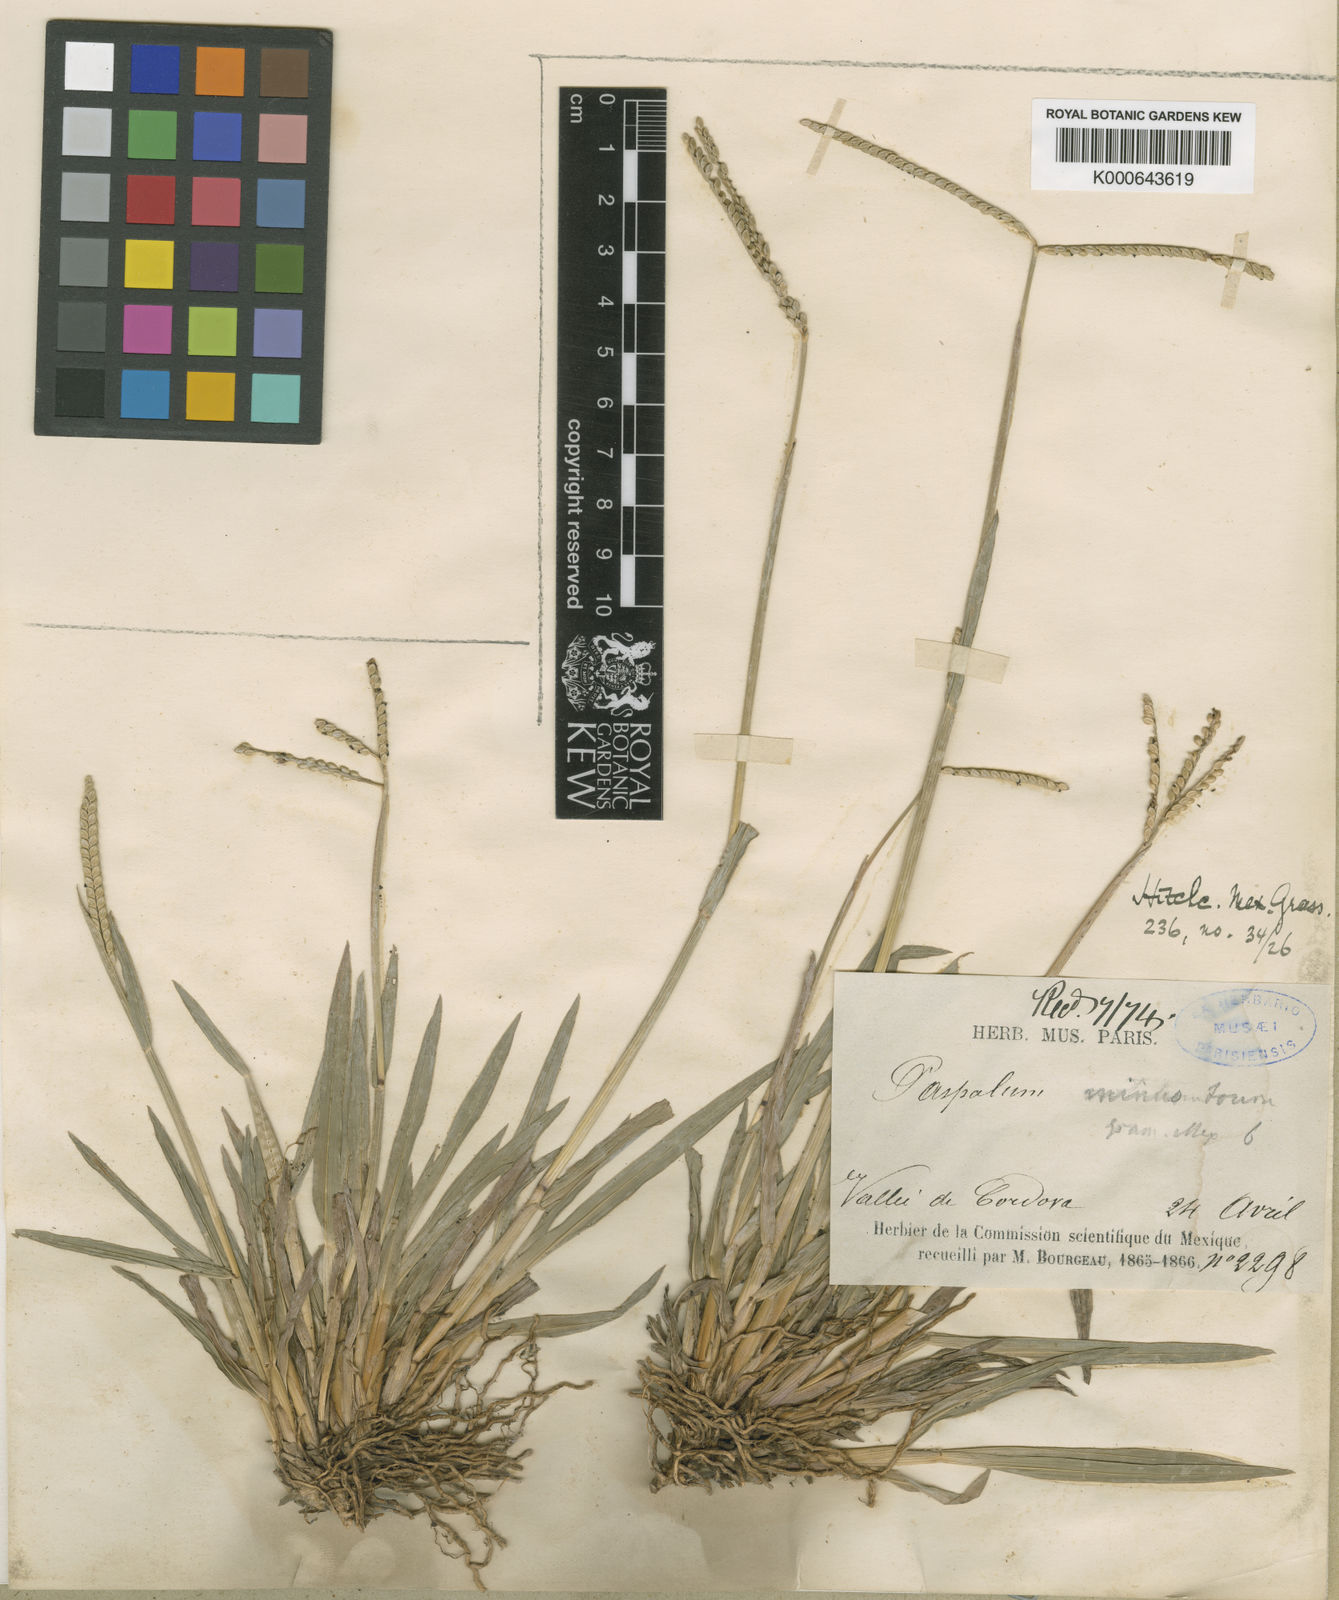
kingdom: Plantae
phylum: Tracheophyta
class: Liliopsida
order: Poales
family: Poaceae
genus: Paspalum
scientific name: Paspalum minus
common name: Matted paspalum
